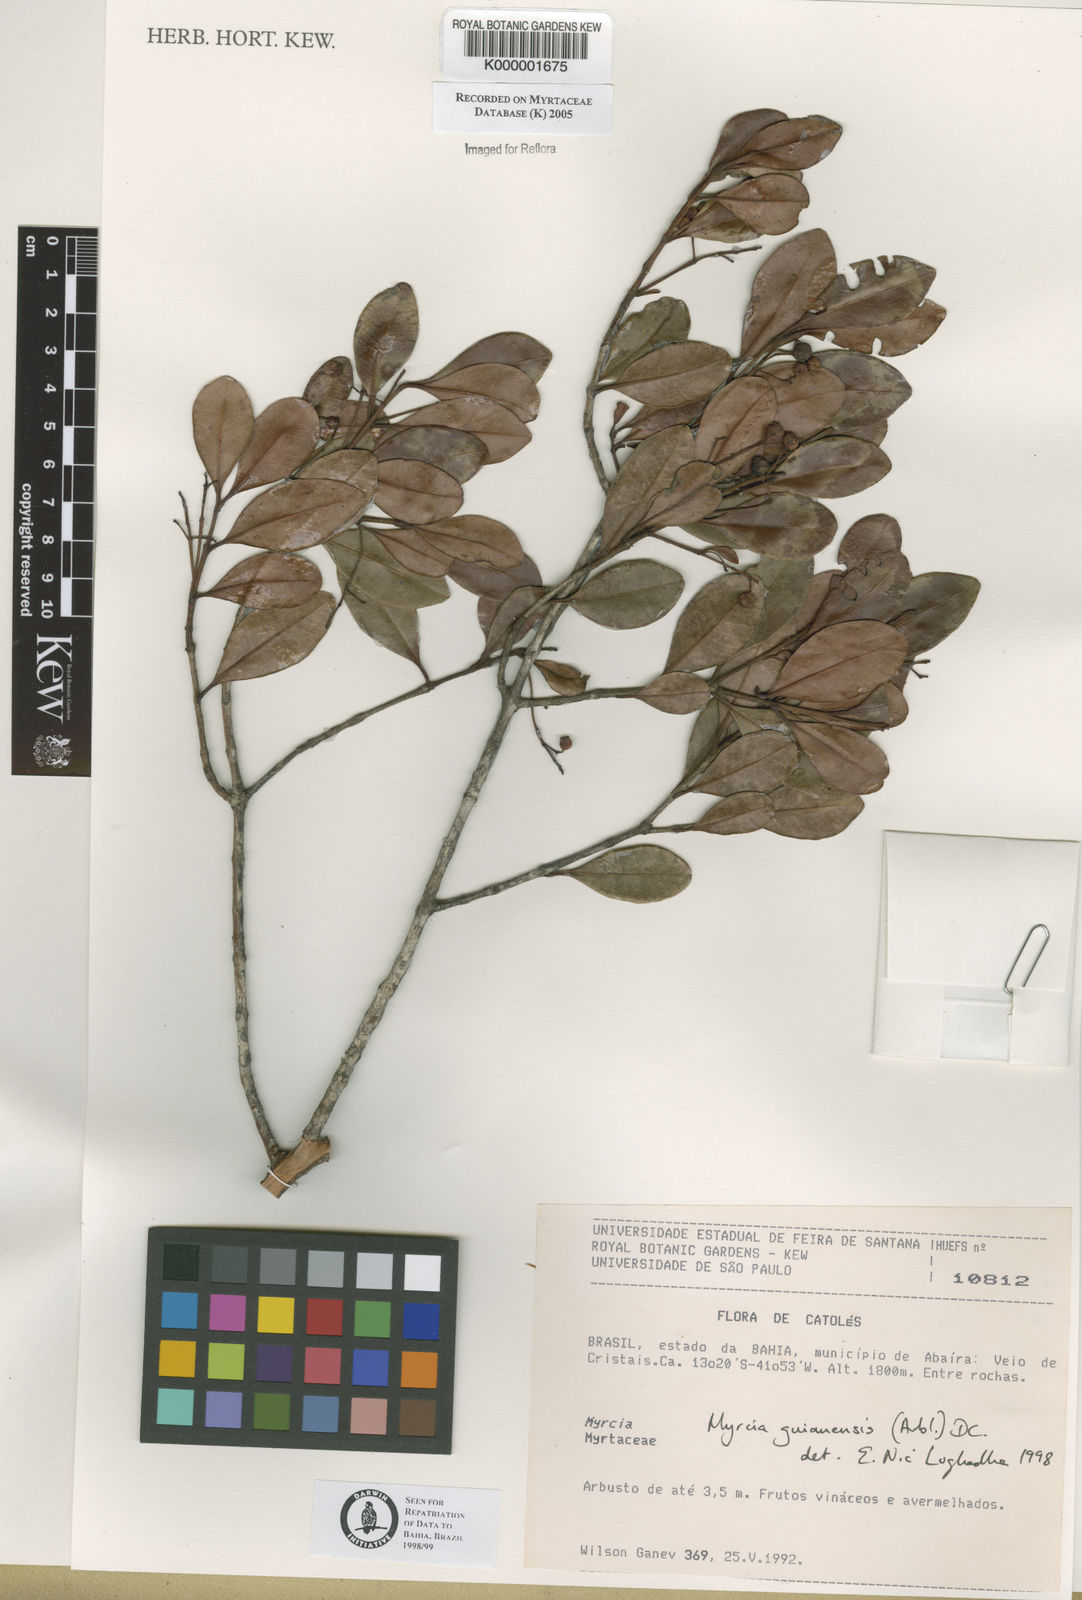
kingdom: Plantae
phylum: Tracheophyta
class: Magnoliopsida
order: Myrtales
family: Myrtaceae
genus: Myrcia
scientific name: Myrcia guianensis
